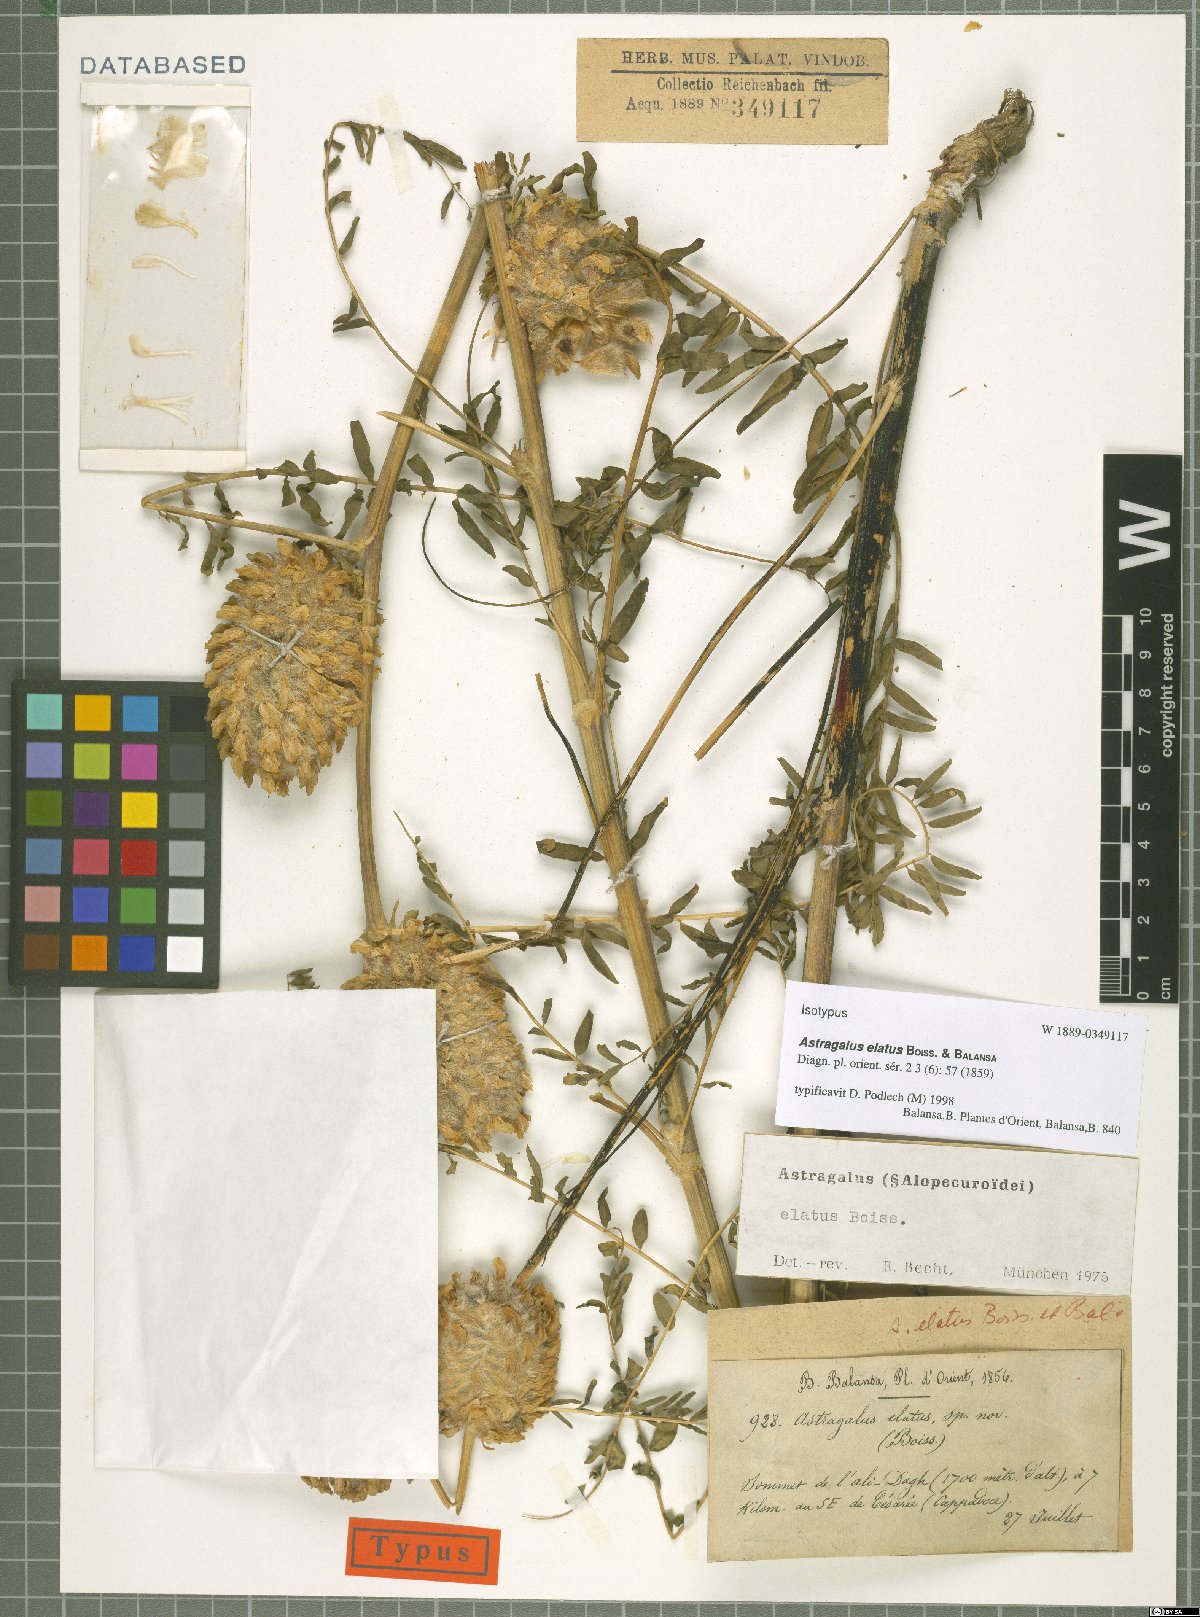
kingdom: Plantae
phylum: Tracheophyta
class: Magnoliopsida
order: Fabales
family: Fabaceae
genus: Astragalus
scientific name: Astragalus elatus
